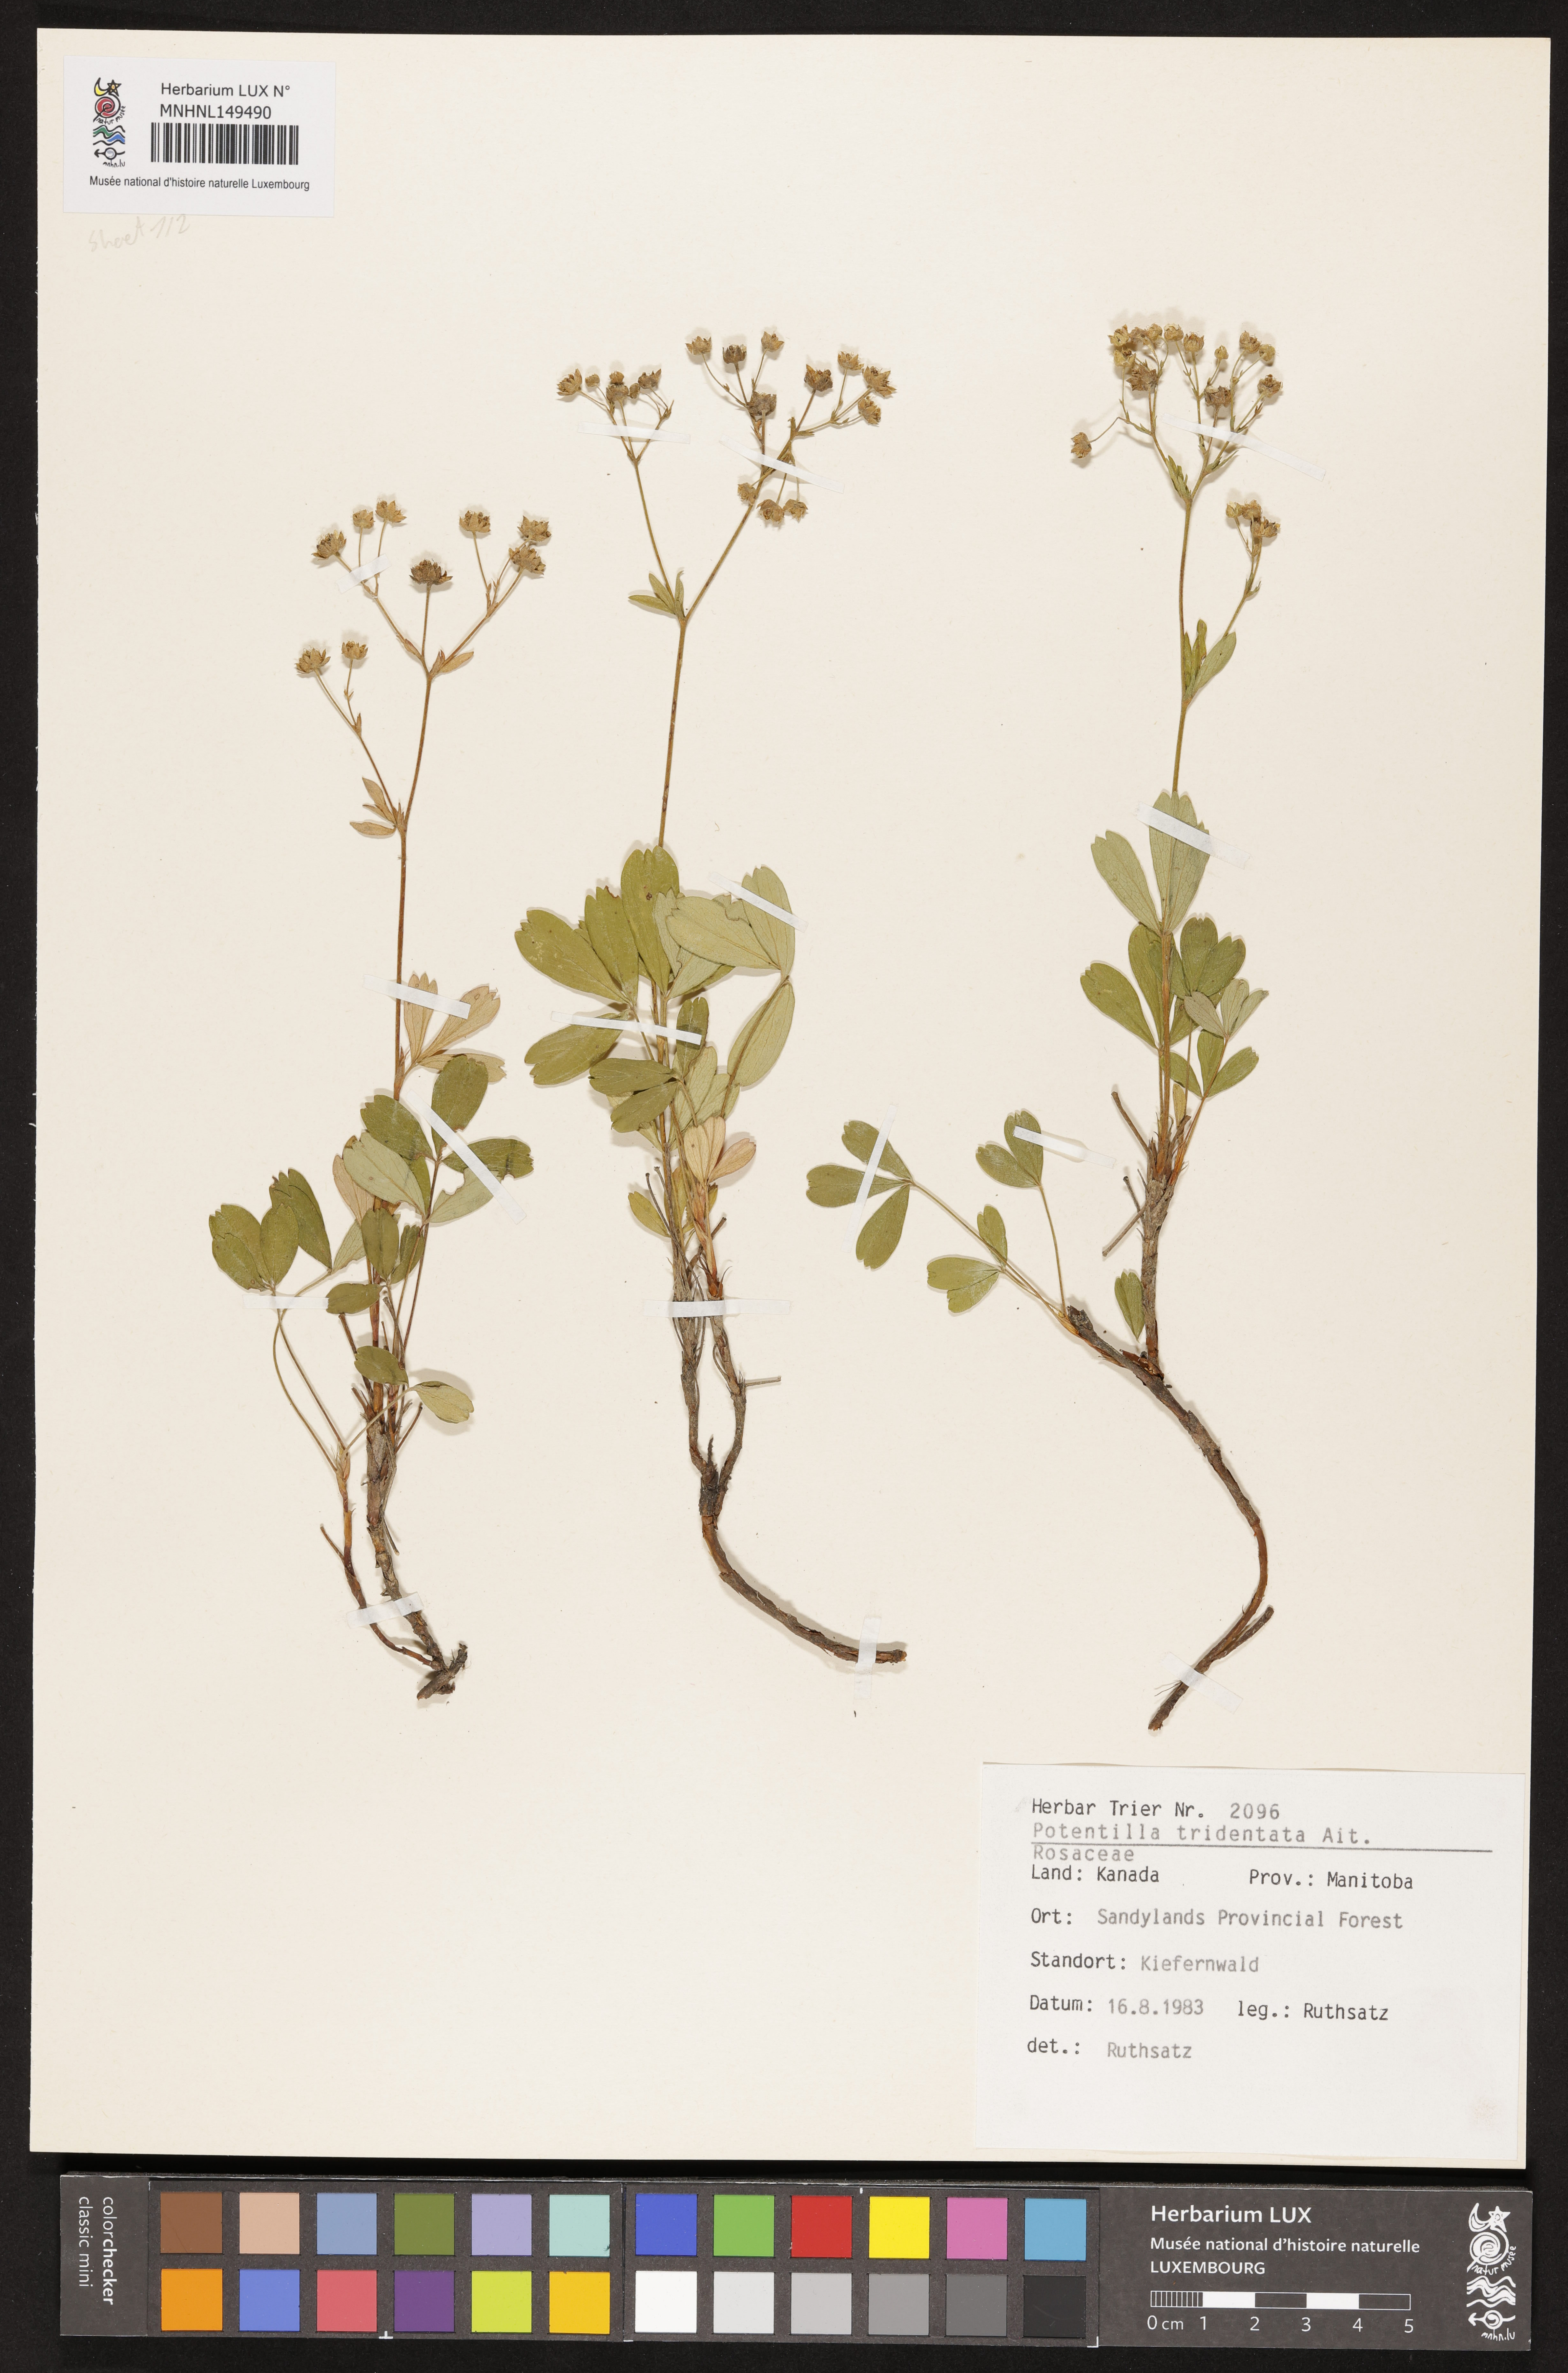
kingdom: Plantae
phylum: Tracheophyta
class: Magnoliopsida
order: Rosales
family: Rosaceae
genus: Sibbaldia
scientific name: Sibbaldia tridentata
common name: Three-toothed cinquefoil
